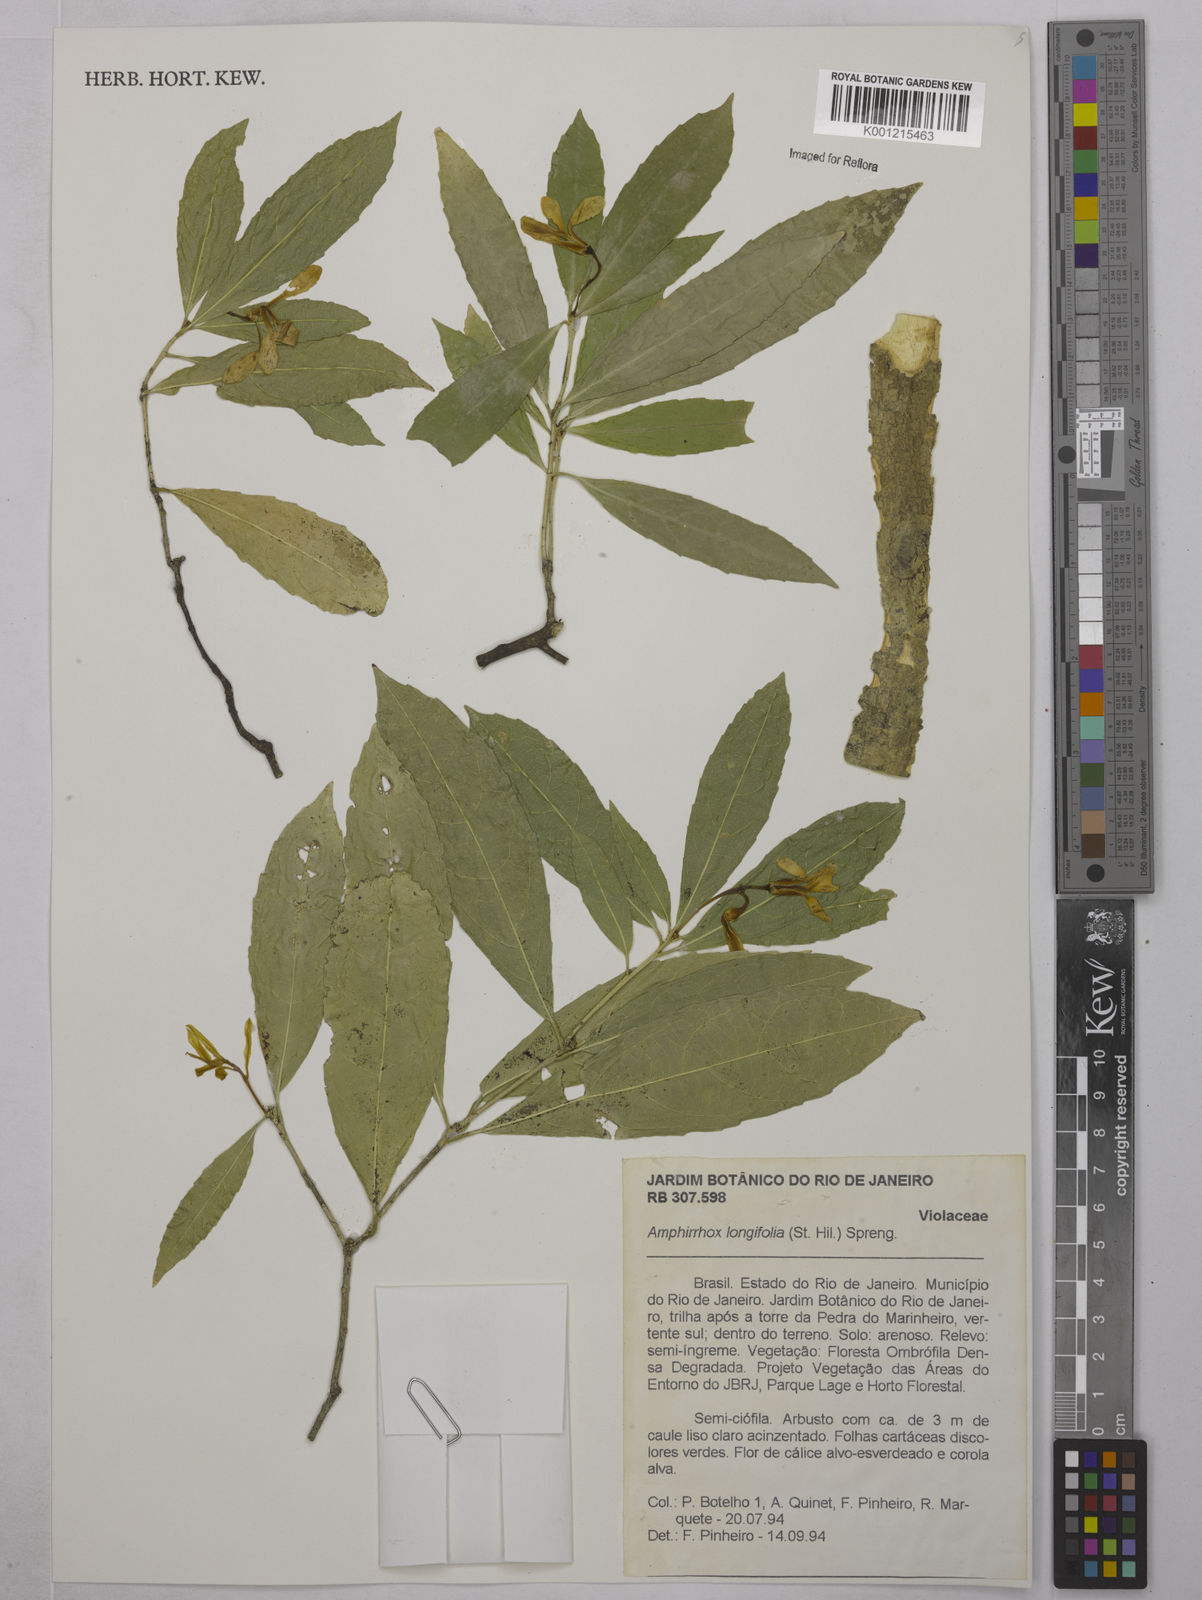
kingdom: Plantae
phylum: Tracheophyta
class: Magnoliopsida
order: Malpighiales
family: Violaceae
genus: Amphirrhox
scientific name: Amphirrhox longifolia
